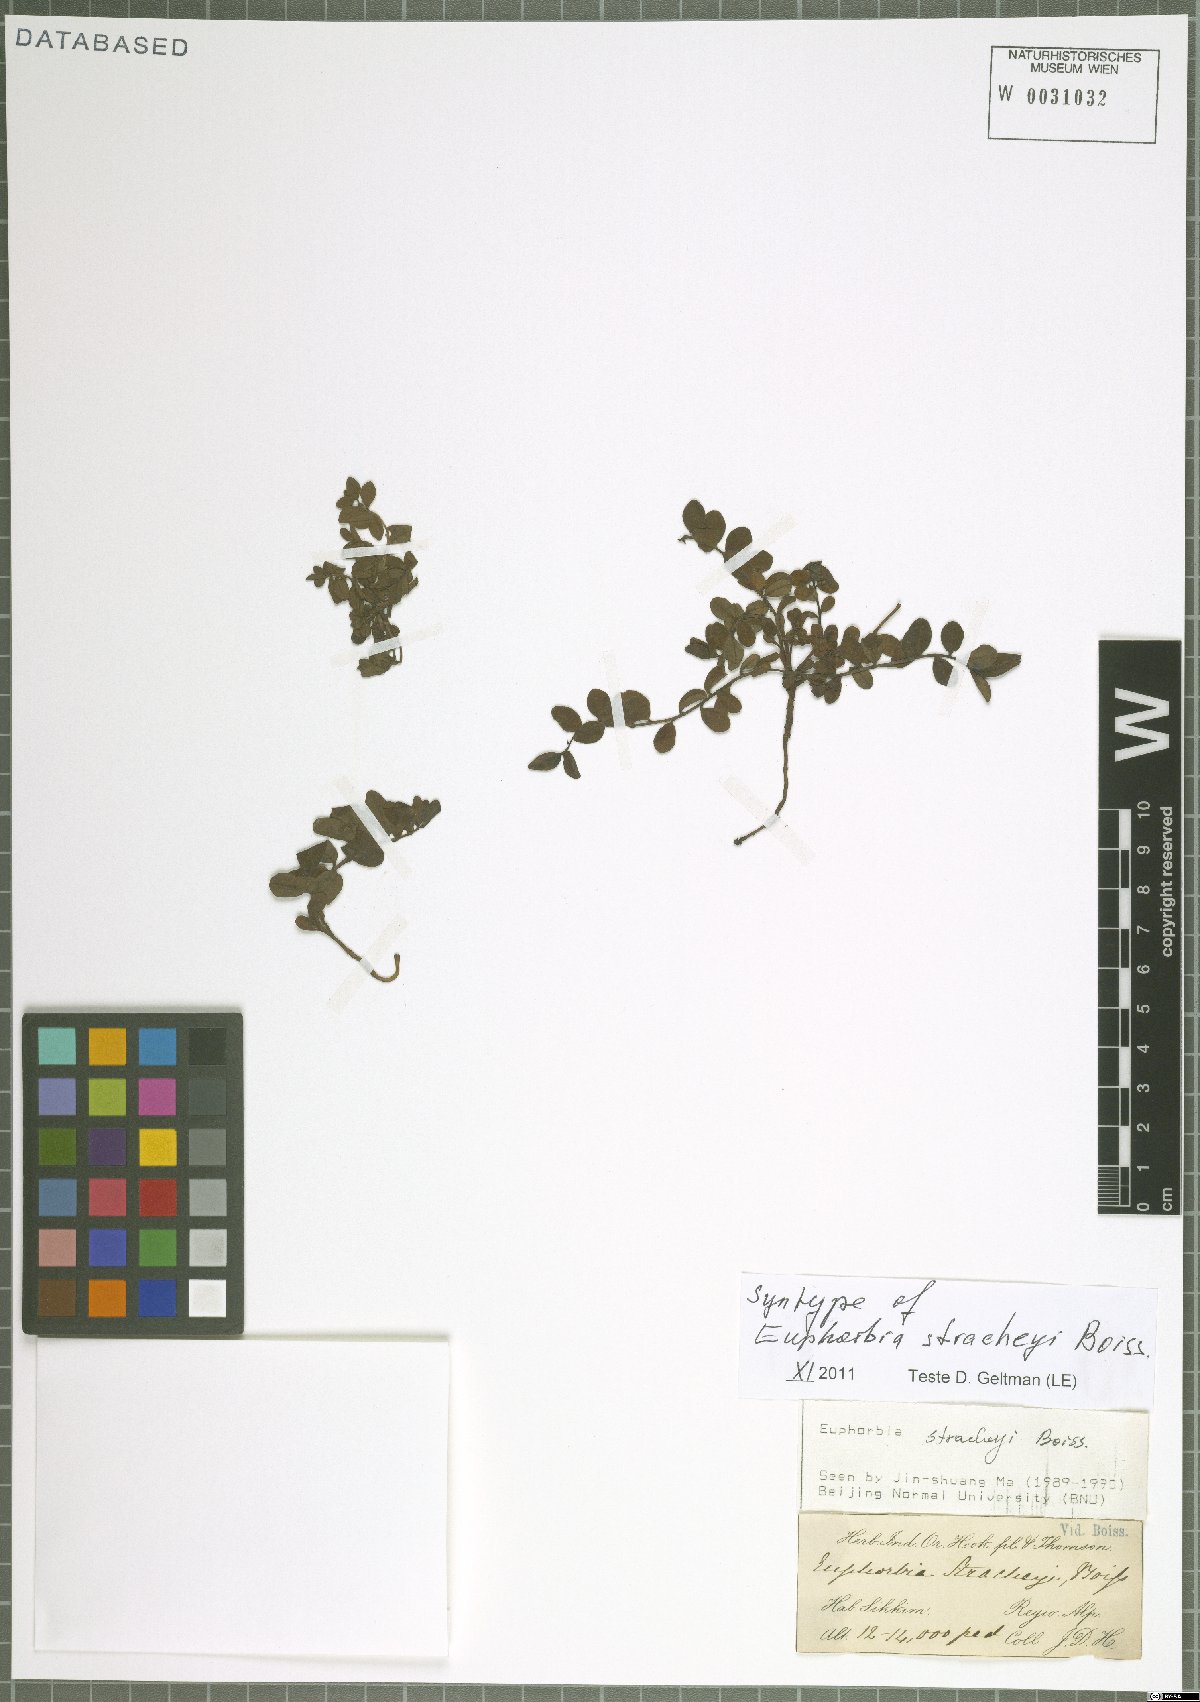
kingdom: Plantae
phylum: Tracheophyta
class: Magnoliopsida
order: Malpighiales
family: Euphorbiaceae
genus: Euphorbia
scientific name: Euphorbia stracheyi
